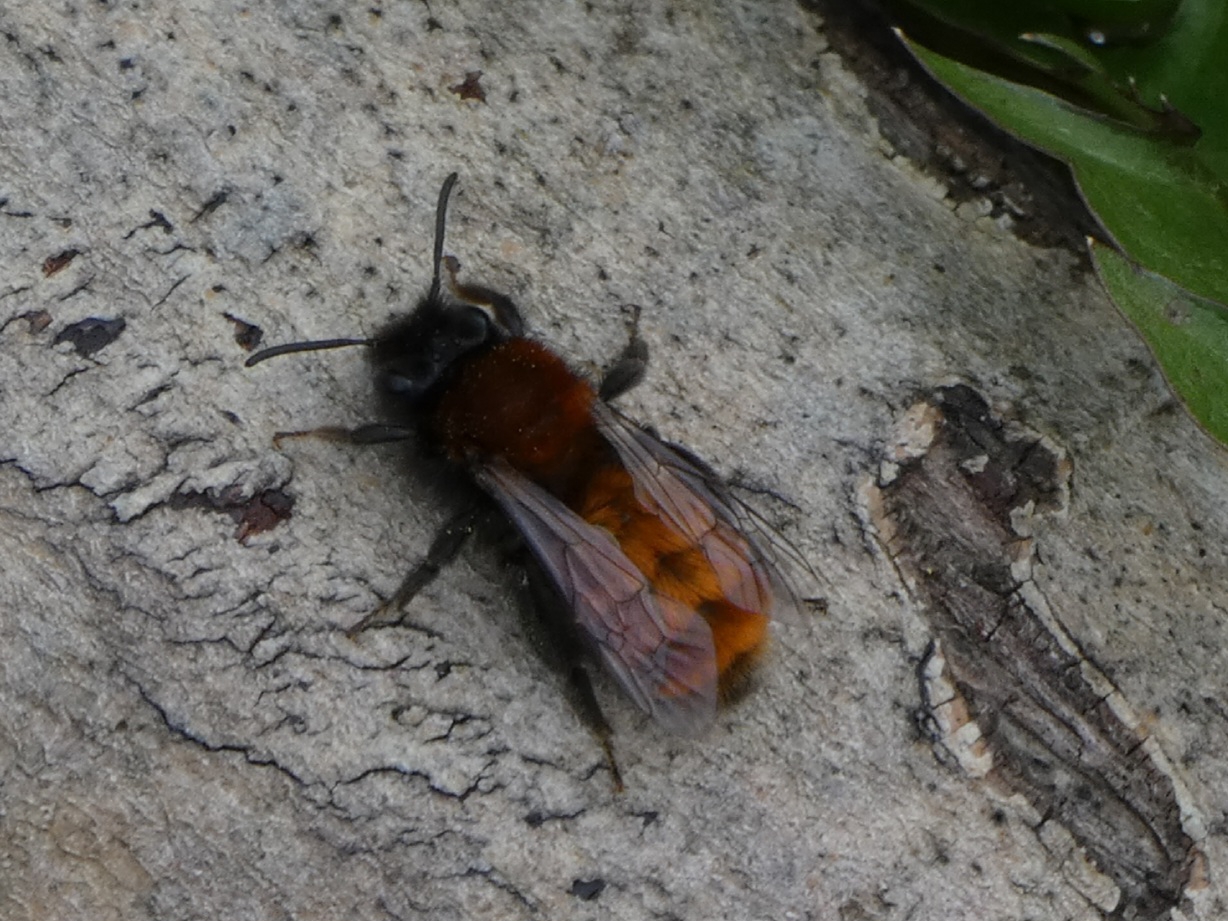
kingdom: Animalia
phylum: Arthropoda
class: Insecta
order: Hymenoptera
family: Andrenidae
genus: Andrena
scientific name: Andrena fulva
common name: Rødpelset jordbi
